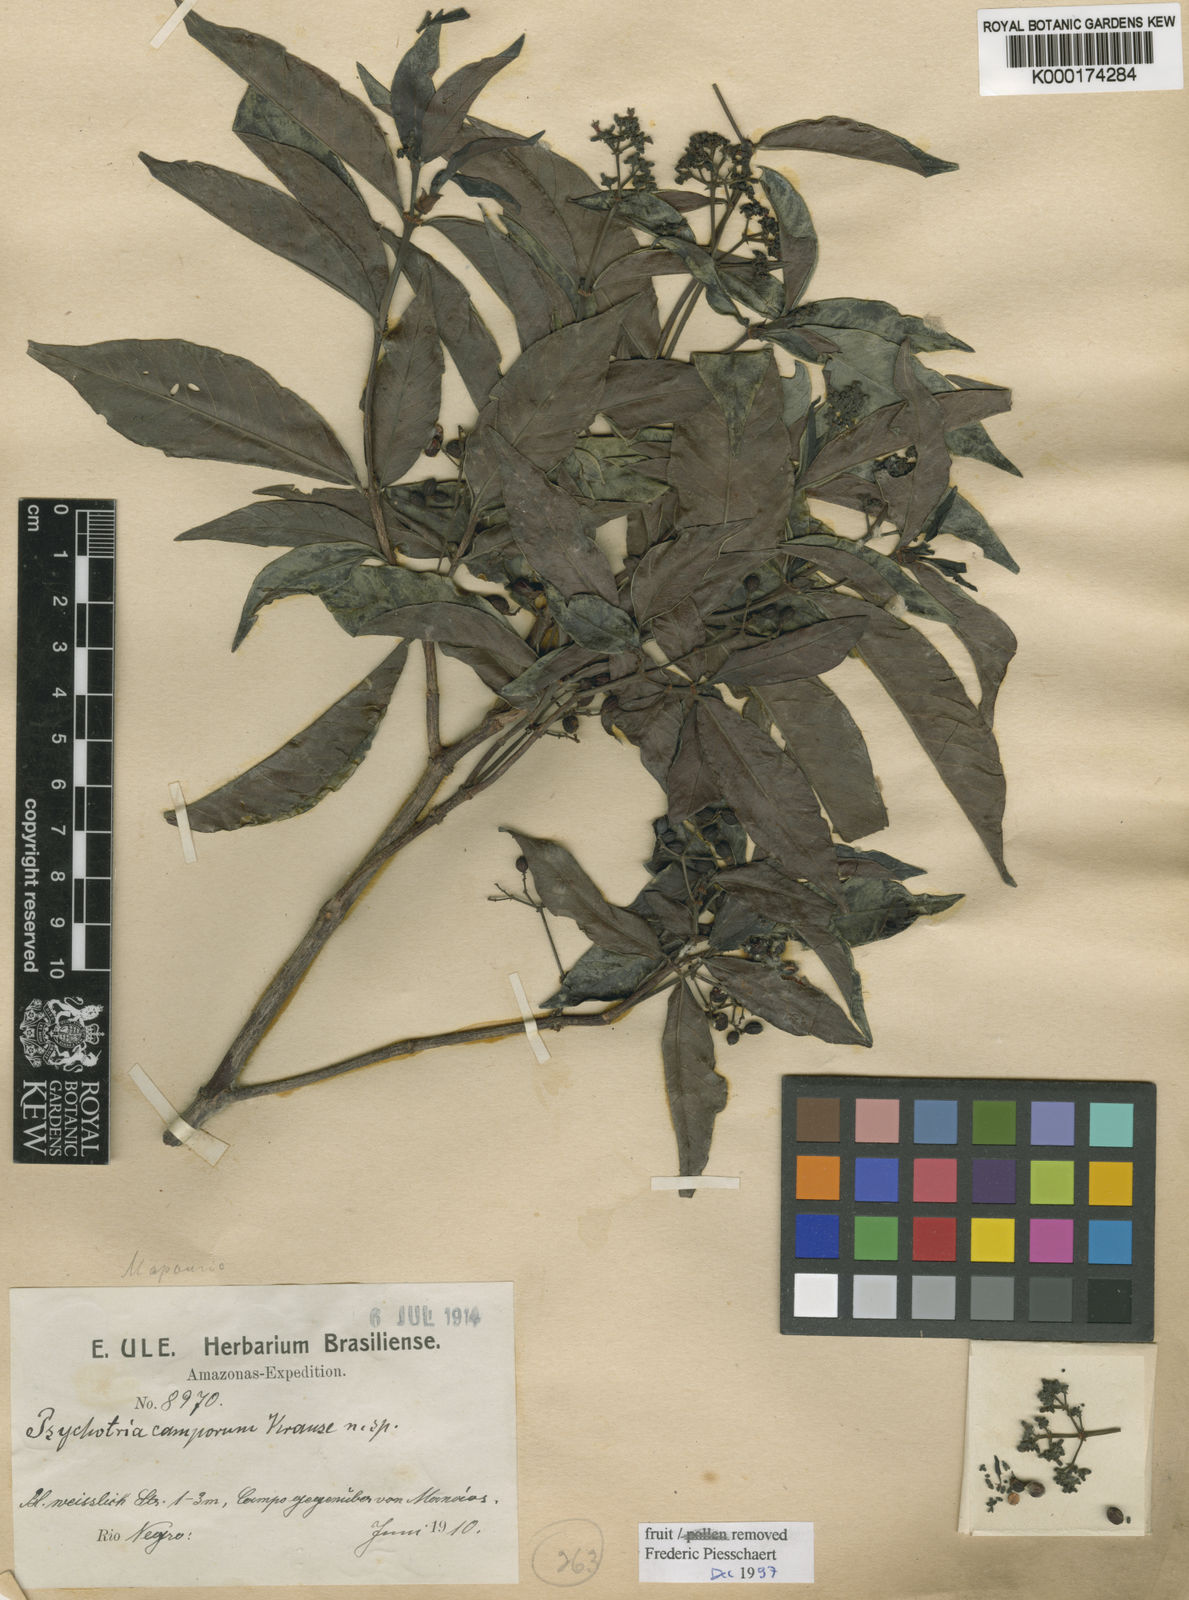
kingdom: Plantae
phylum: Tracheophyta
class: Magnoliopsida
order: Gentianales
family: Rubiaceae
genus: Psychotria
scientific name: Psychotria borjensis
